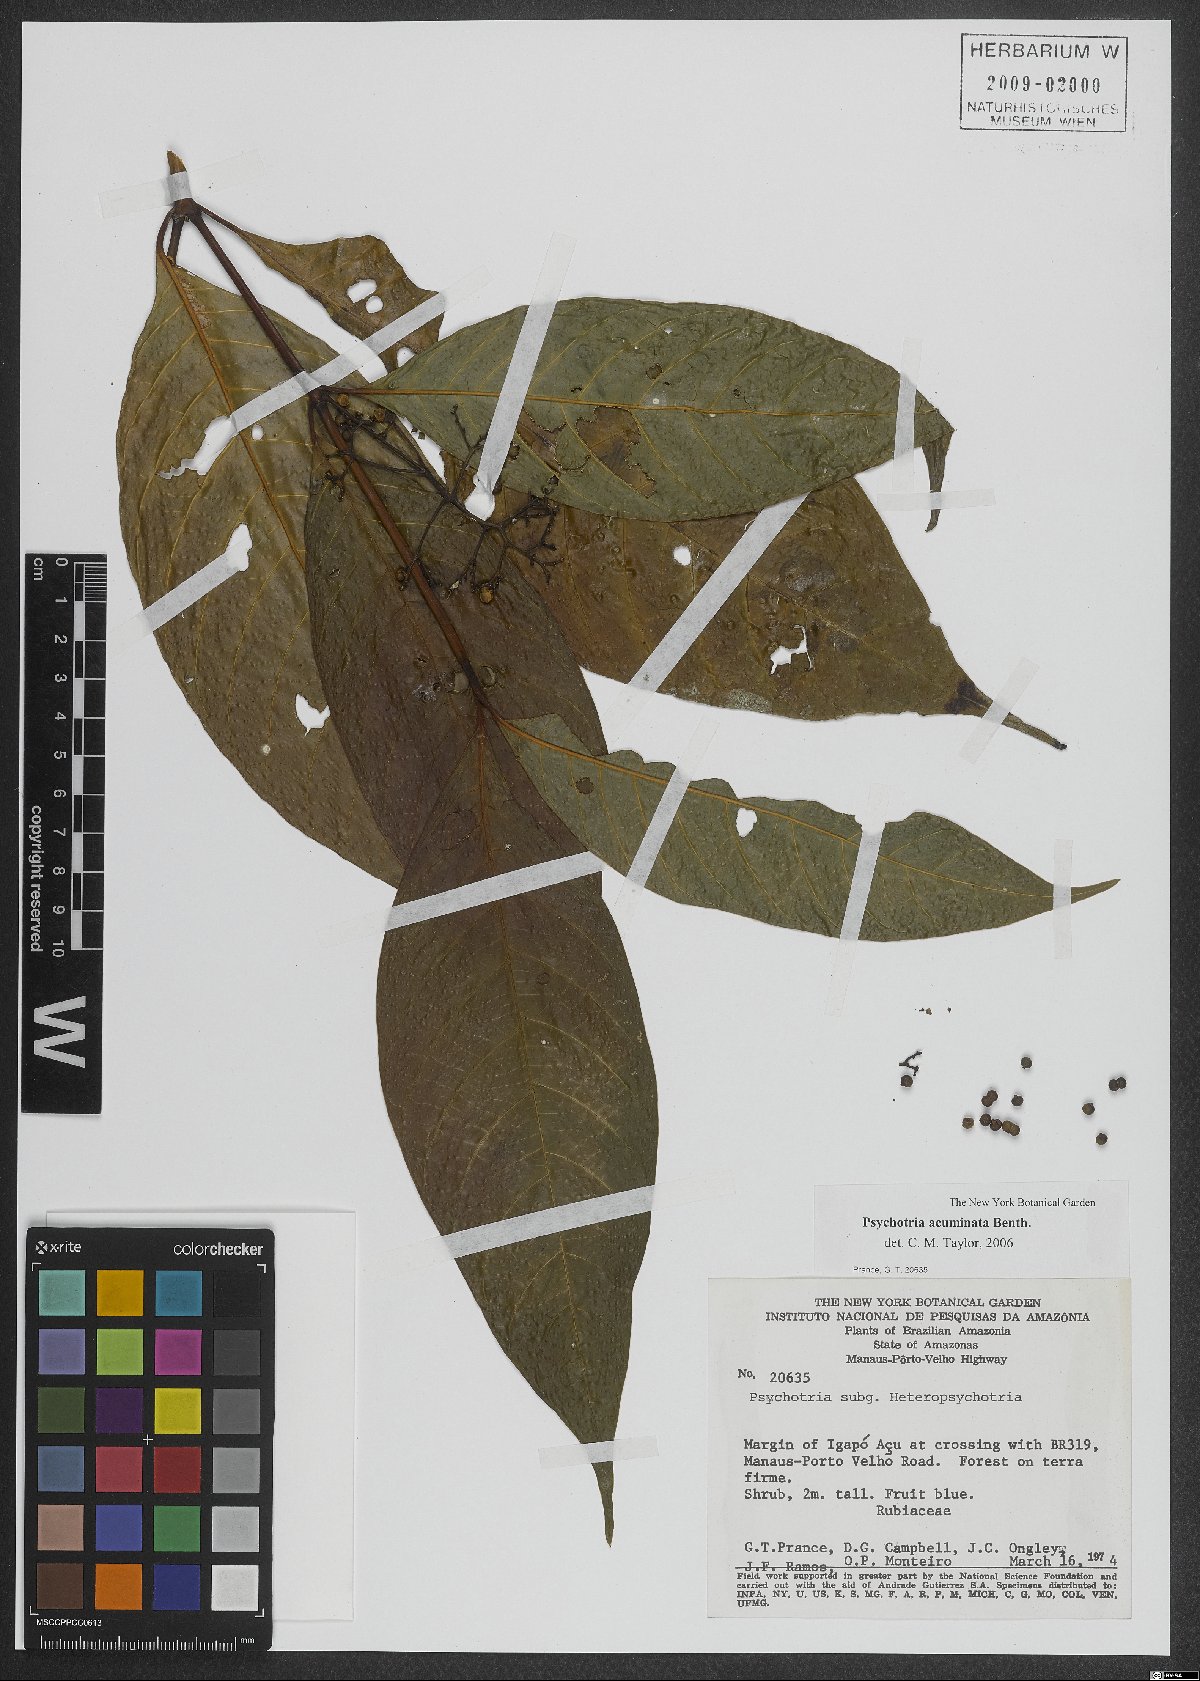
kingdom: Plantae
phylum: Tracheophyta
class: Magnoliopsida
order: Gentianales
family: Rubiaceae
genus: Palicourea
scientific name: Palicourea acuminata
